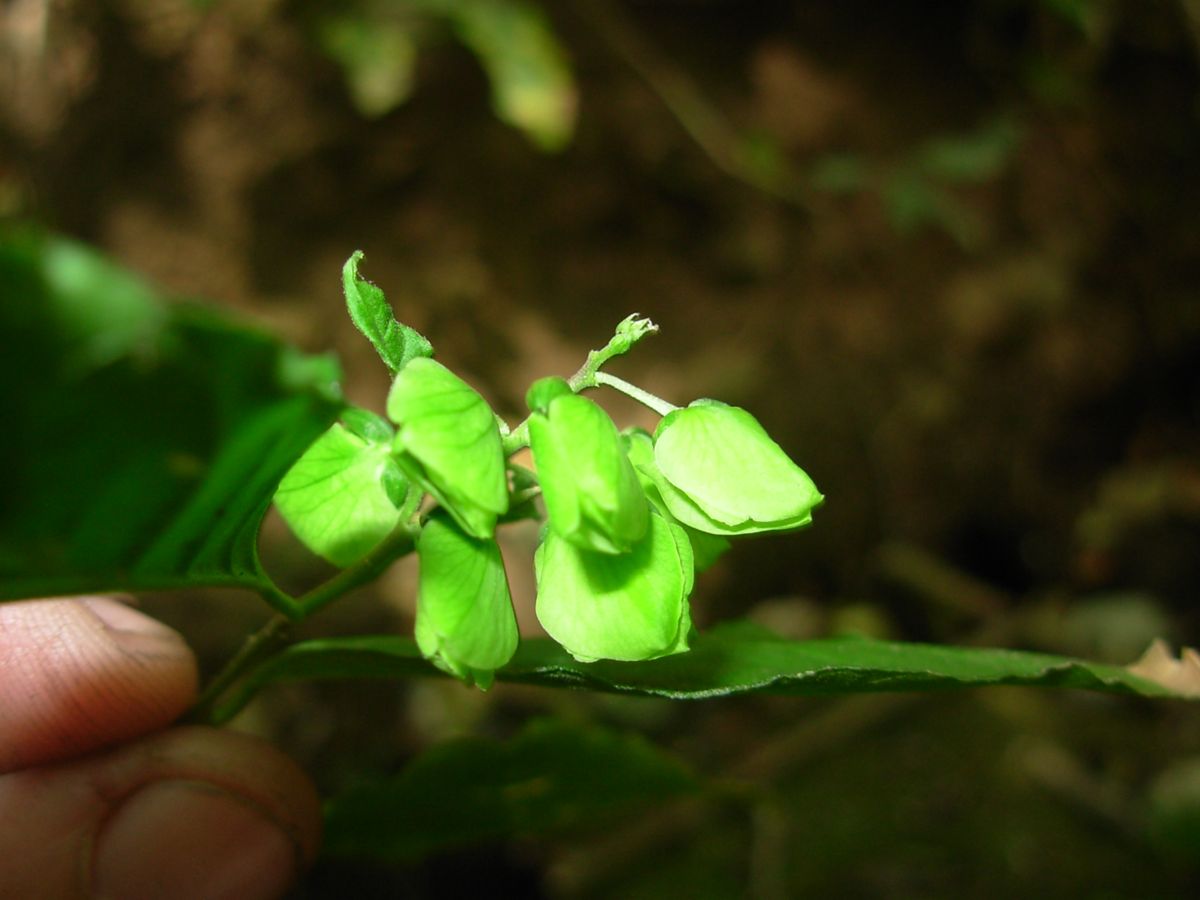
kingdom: Plantae
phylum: Tracheophyta
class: Magnoliopsida
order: Fabales
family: Polygalaceae
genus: Asemeia
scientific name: Asemeia hondurana
